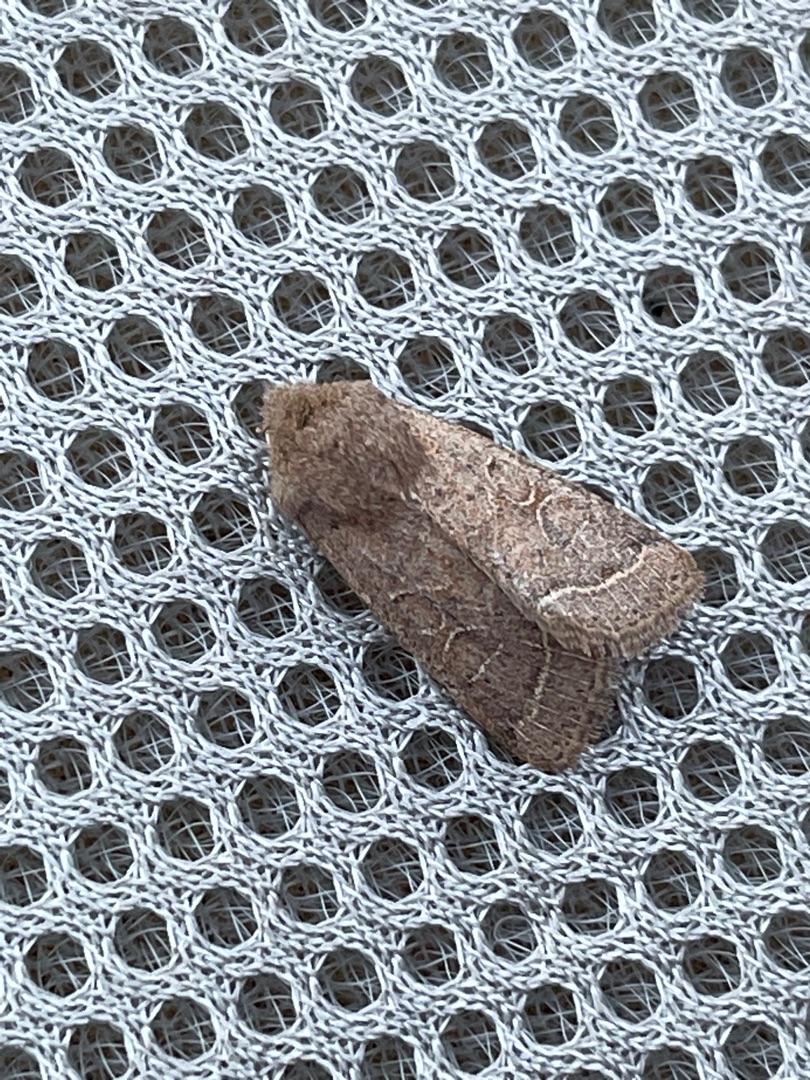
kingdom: Animalia
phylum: Arthropoda
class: Insecta
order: Lepidoptera
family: Noctuidae
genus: Orthosia
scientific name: Orthosia cerasi
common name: Rødgul forårsugle
